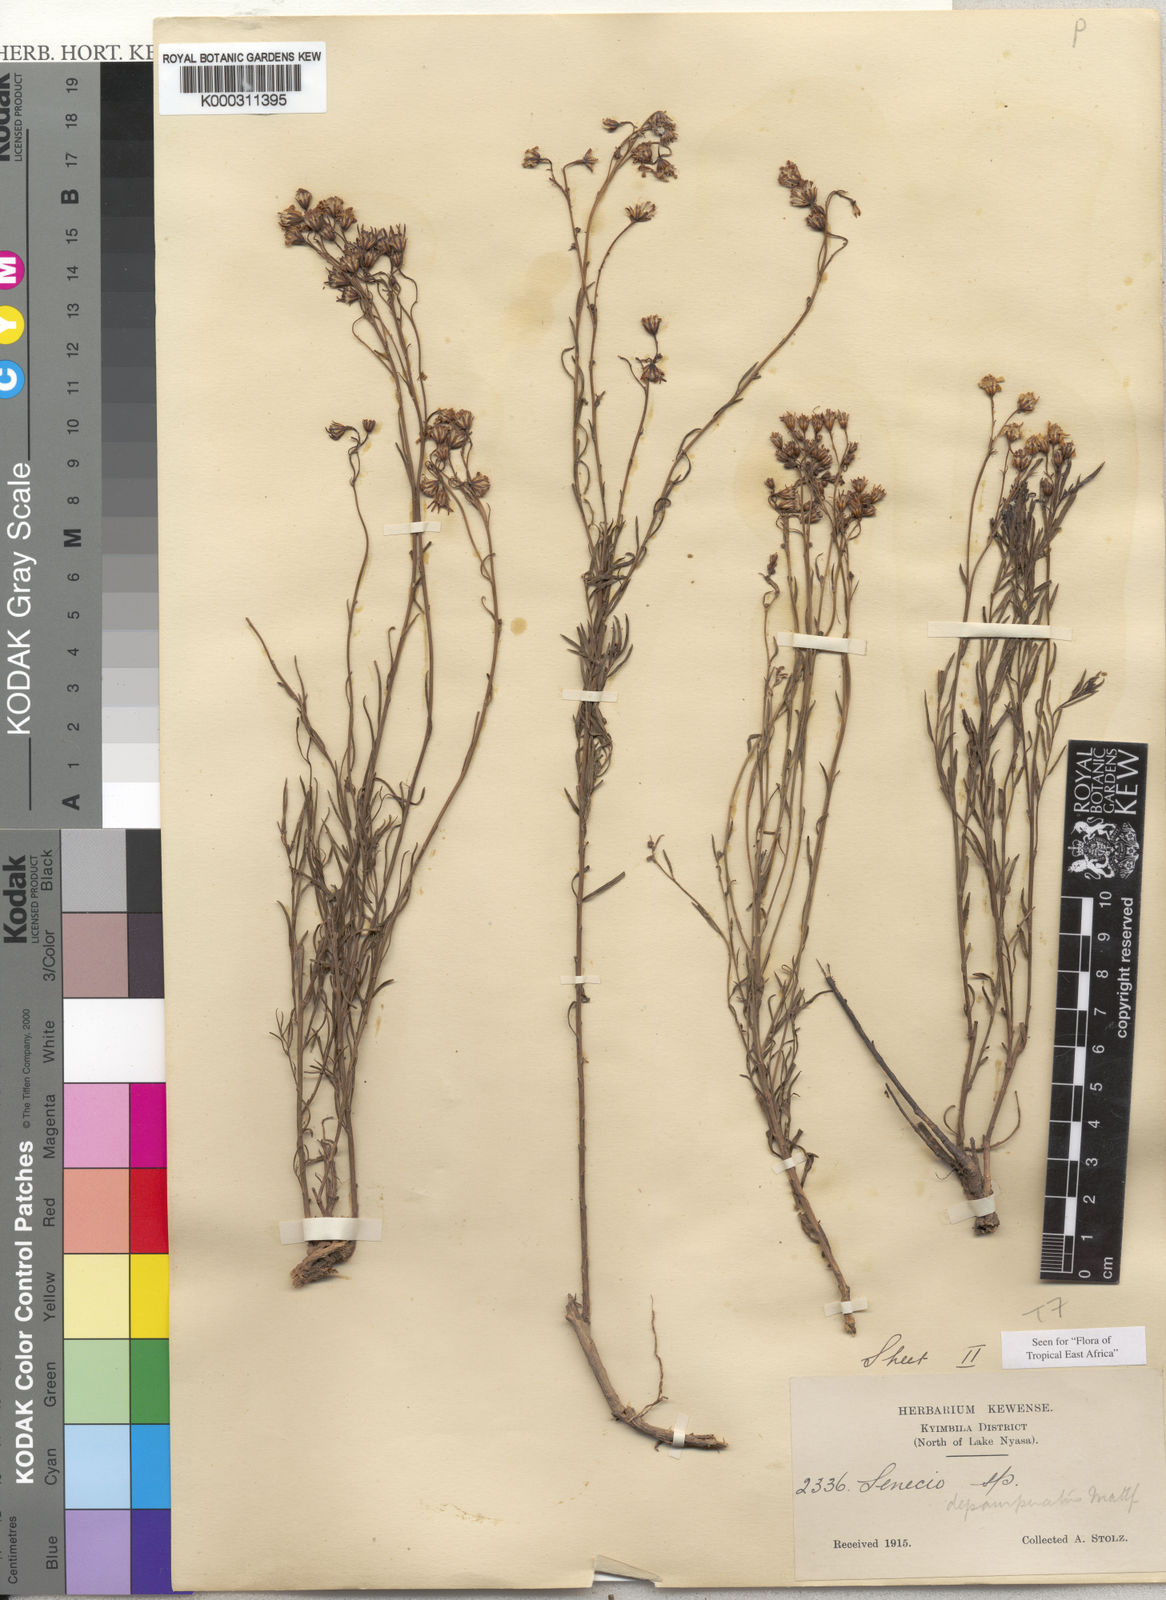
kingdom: Plantae
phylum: Tracheophyta
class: Magnoliopsida
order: Asterales
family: Asteraceae
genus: Senecio
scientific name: Senecio depauperatus
